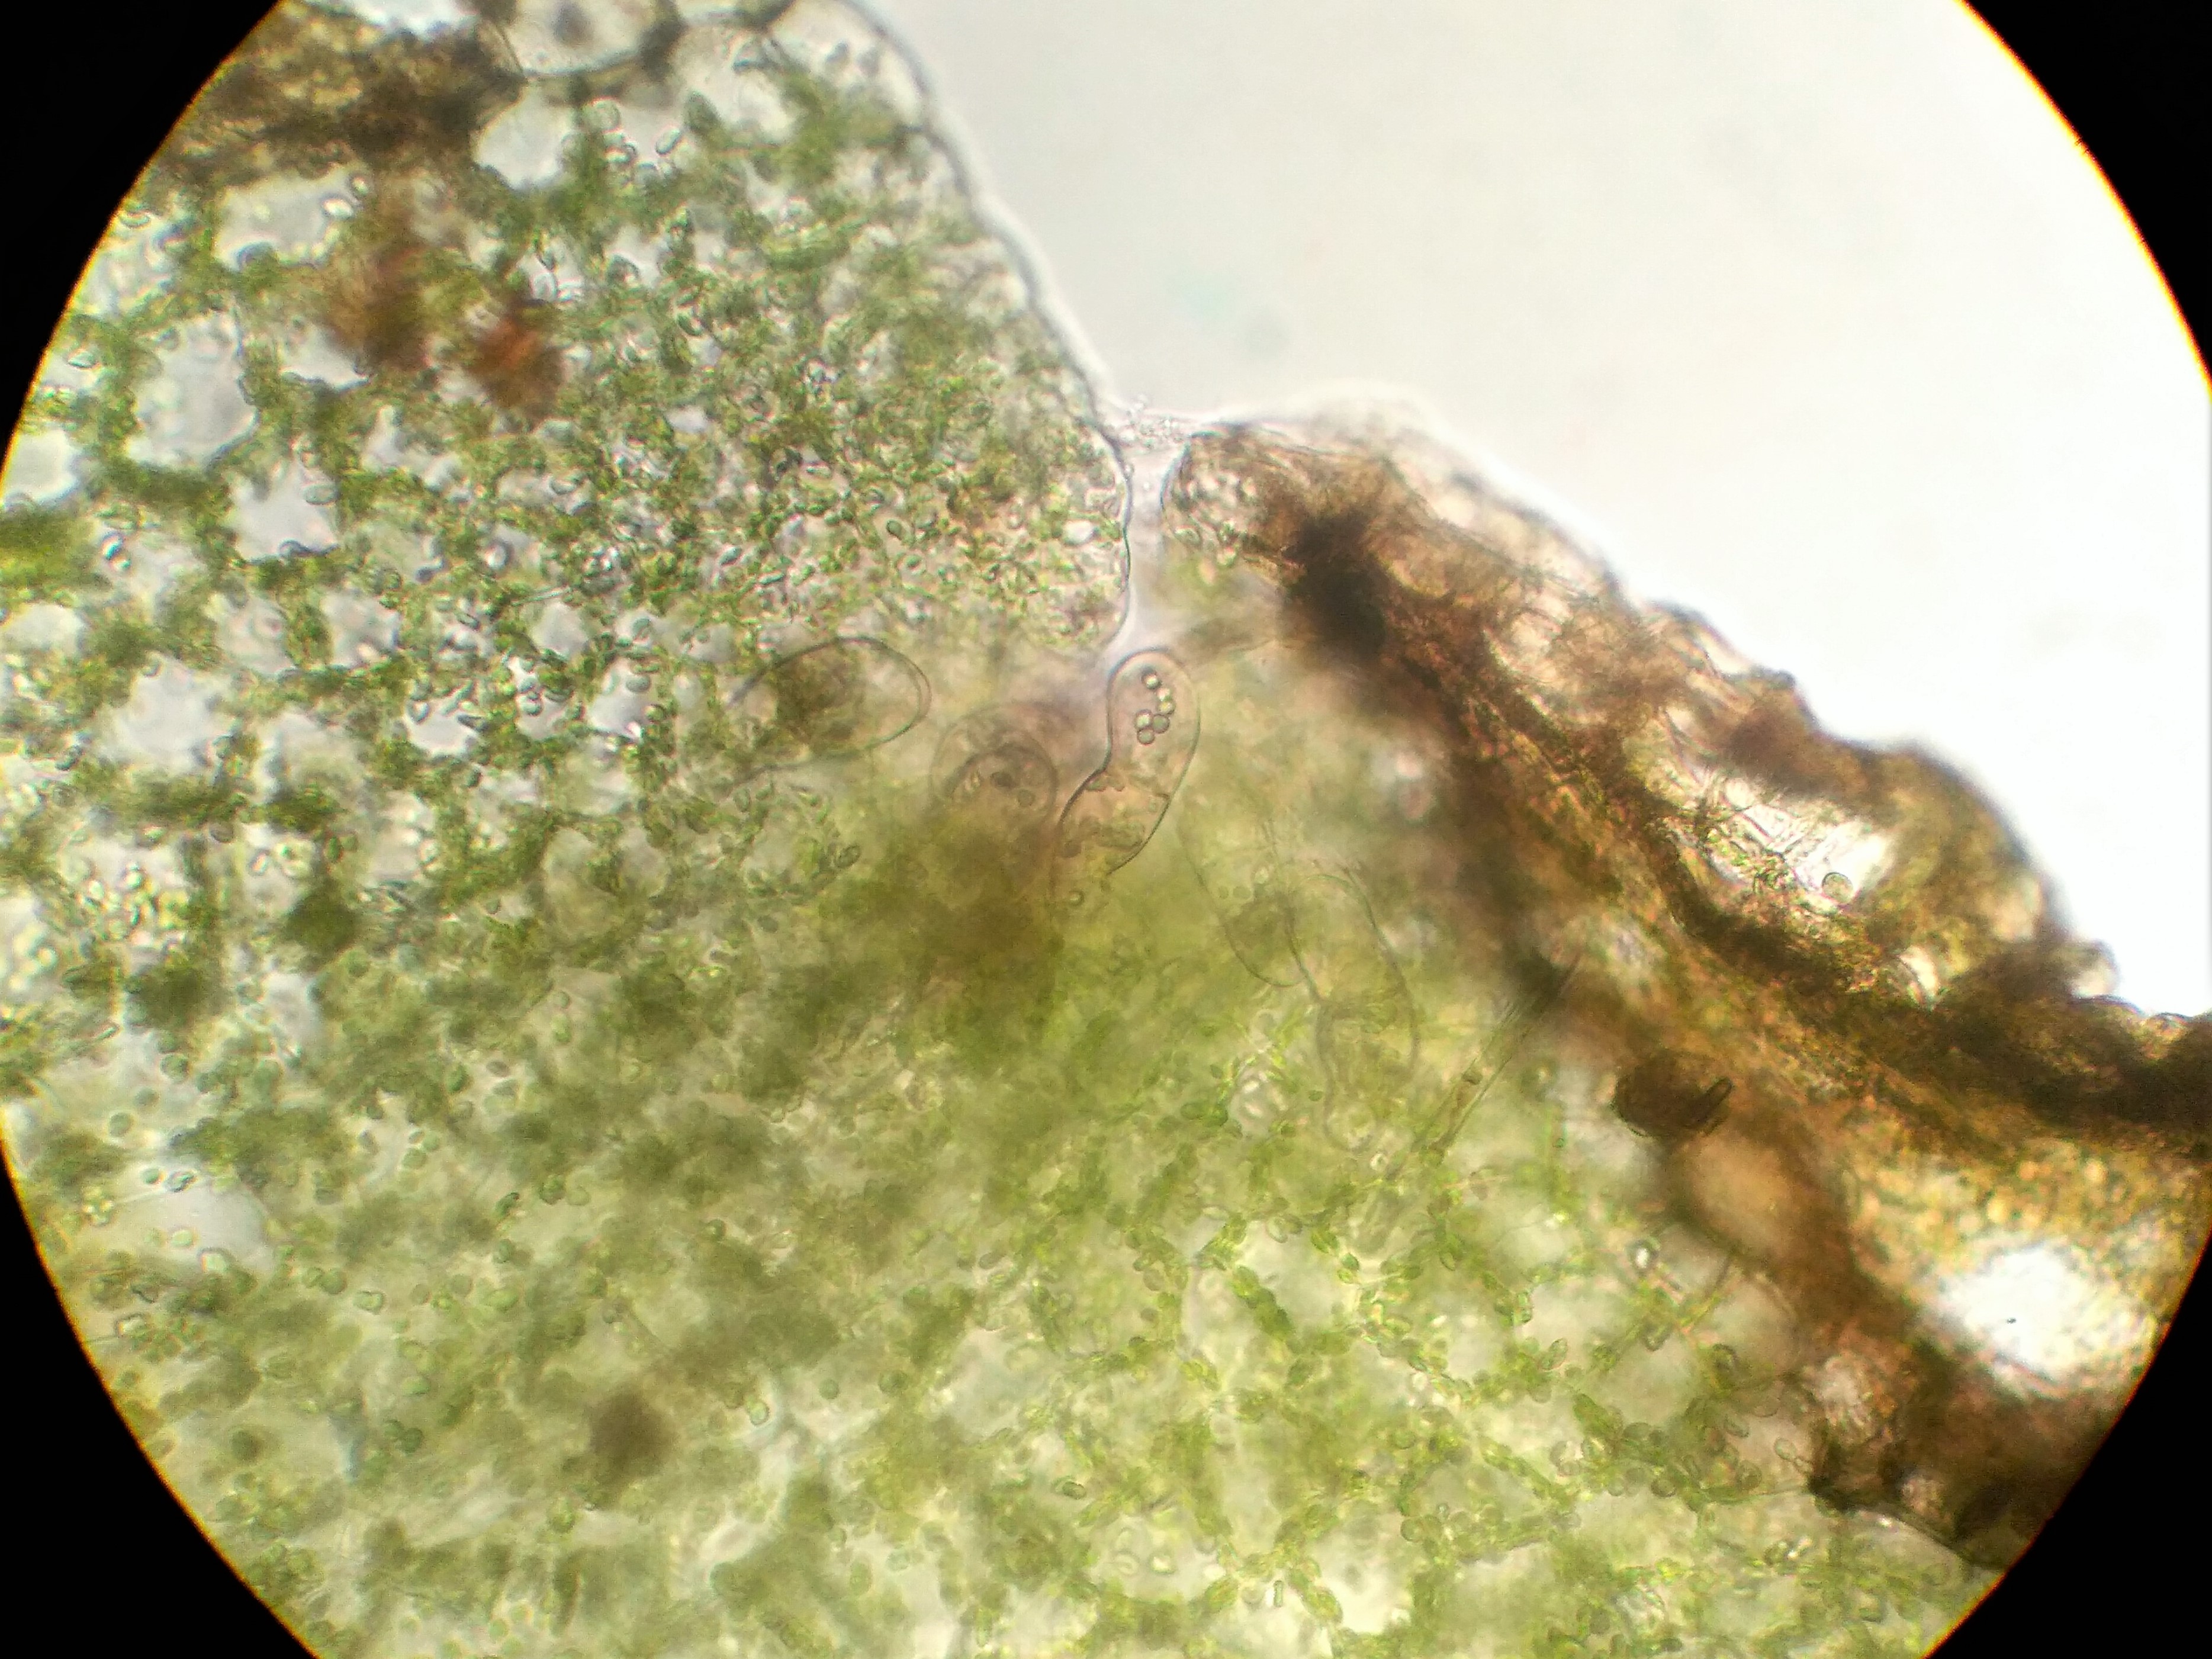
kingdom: Plantae
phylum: Marchantiophyta
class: Jungermanniopsida
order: Pelliales
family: Pelliaceae
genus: Pellia
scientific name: Pellia
